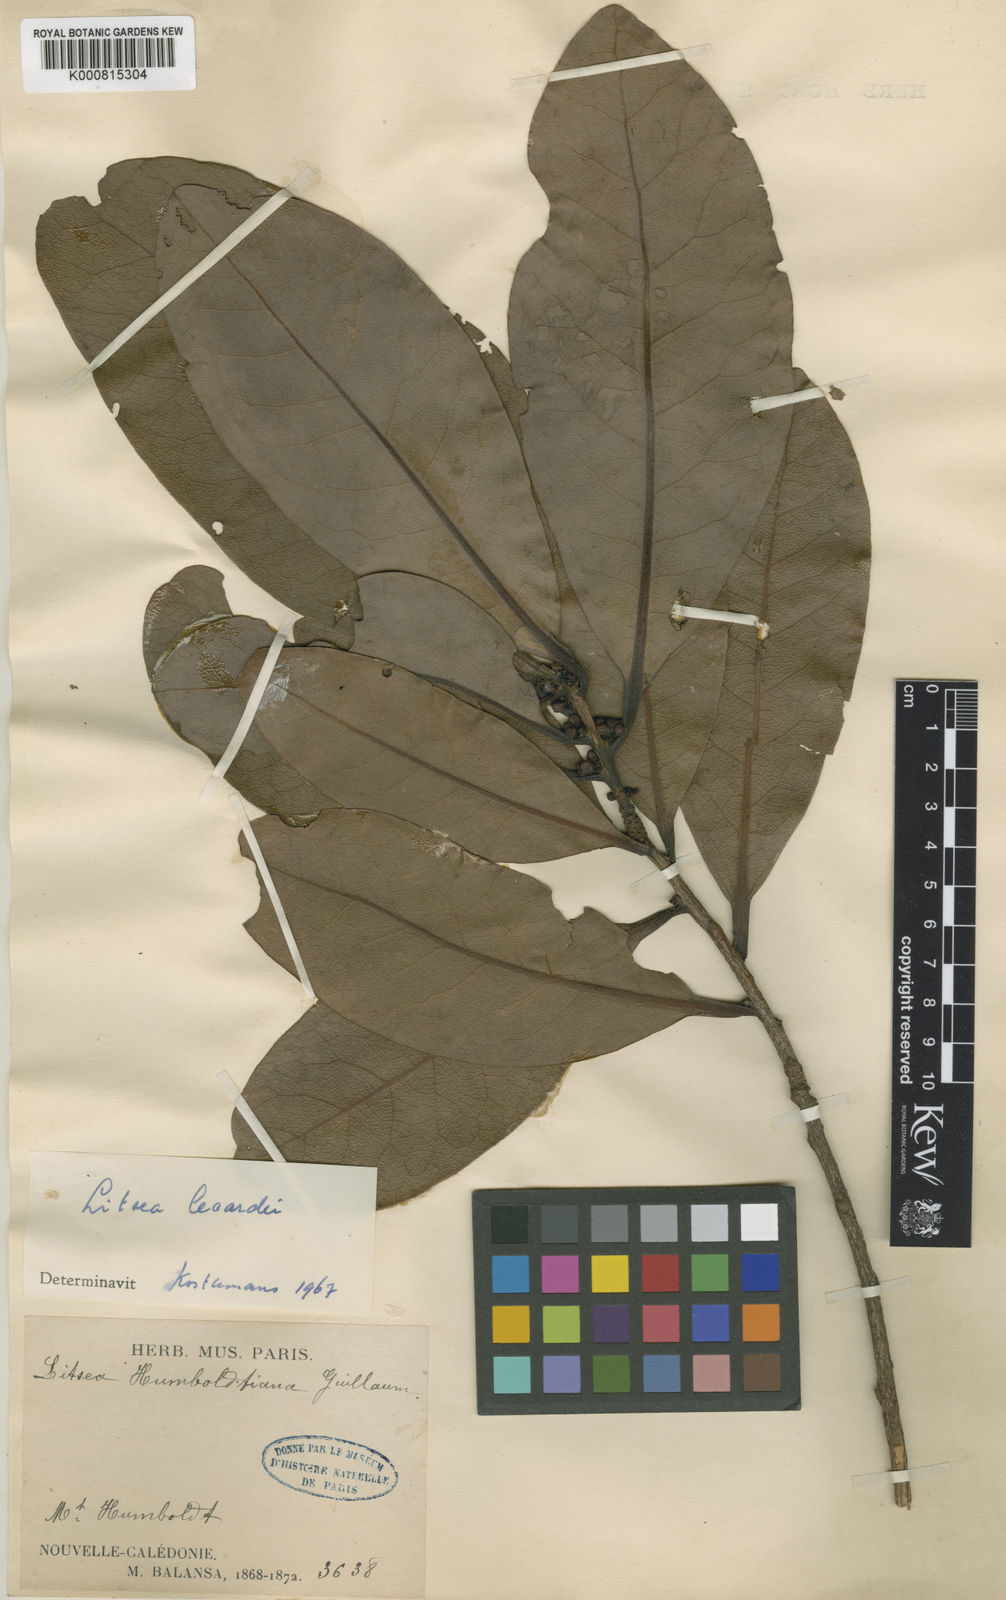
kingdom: Plantae
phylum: Tracheophyta
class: Magnoliopsida
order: Laurales
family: Lauraceae
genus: Litsea
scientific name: Litsea lecardii
